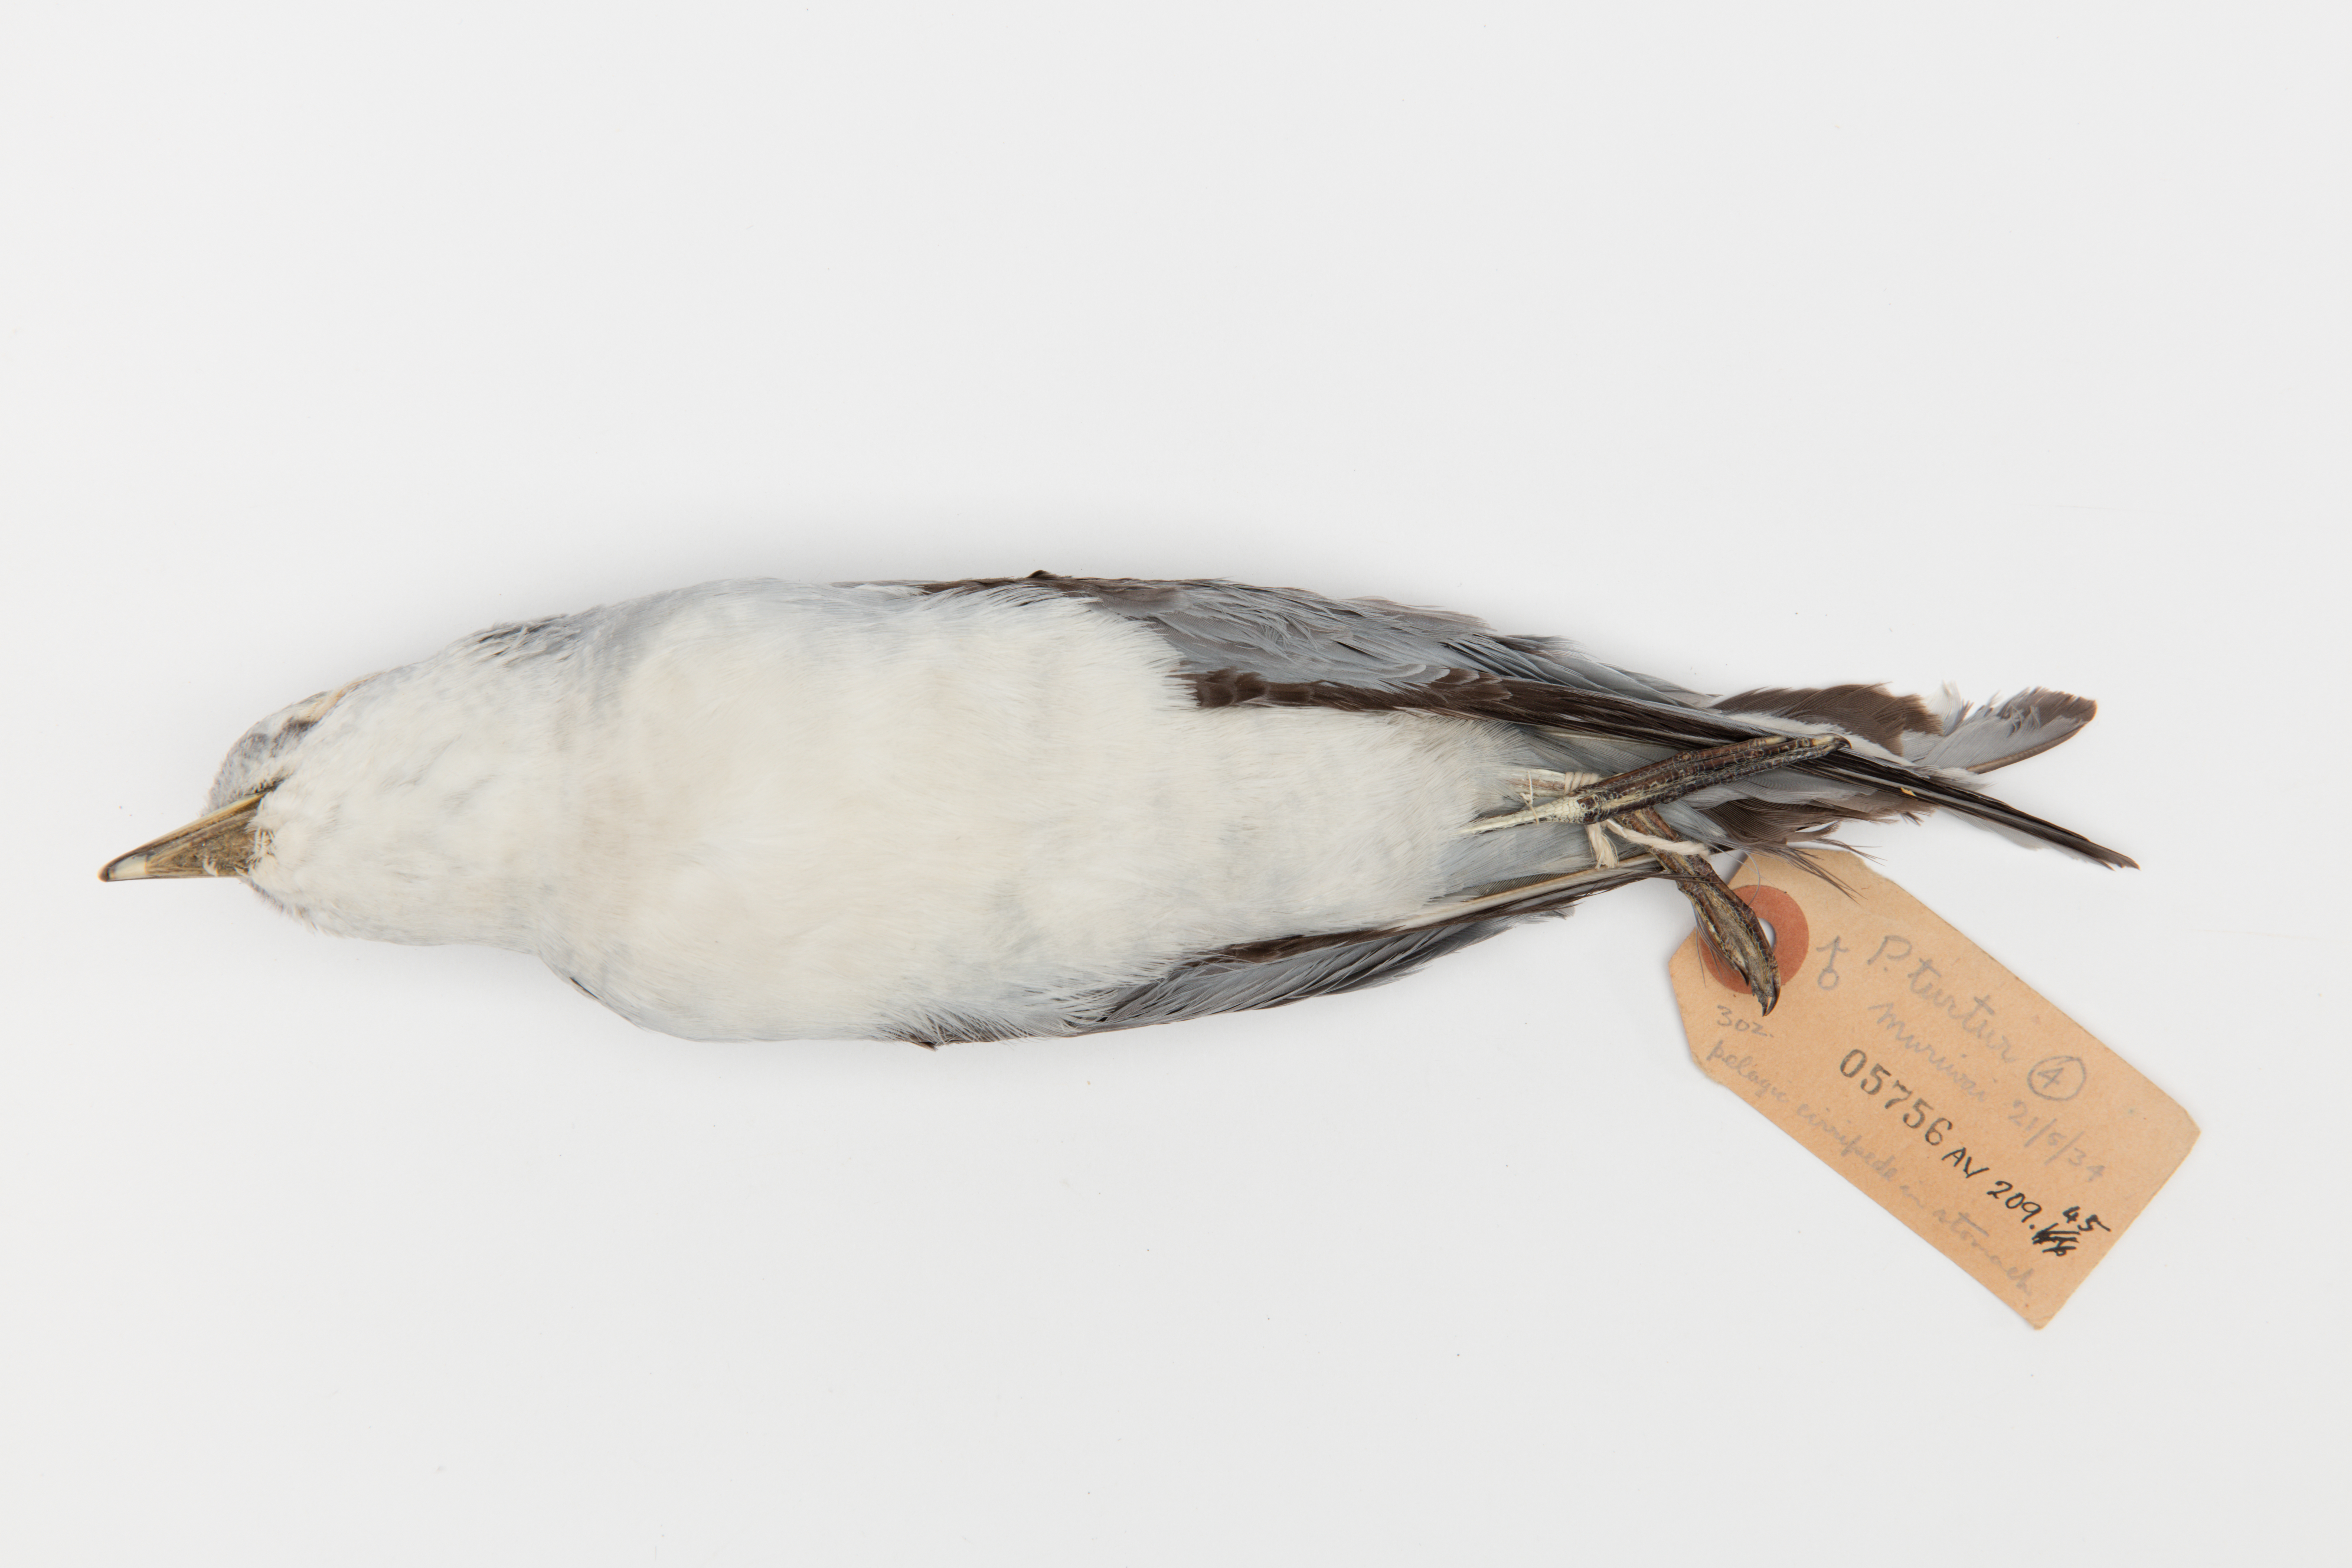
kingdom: Animalia
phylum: Chordata
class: Aves
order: Procellariiformes
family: Procellariidae
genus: Pachyptila
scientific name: Pachyptila turtur
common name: Fairy prion
